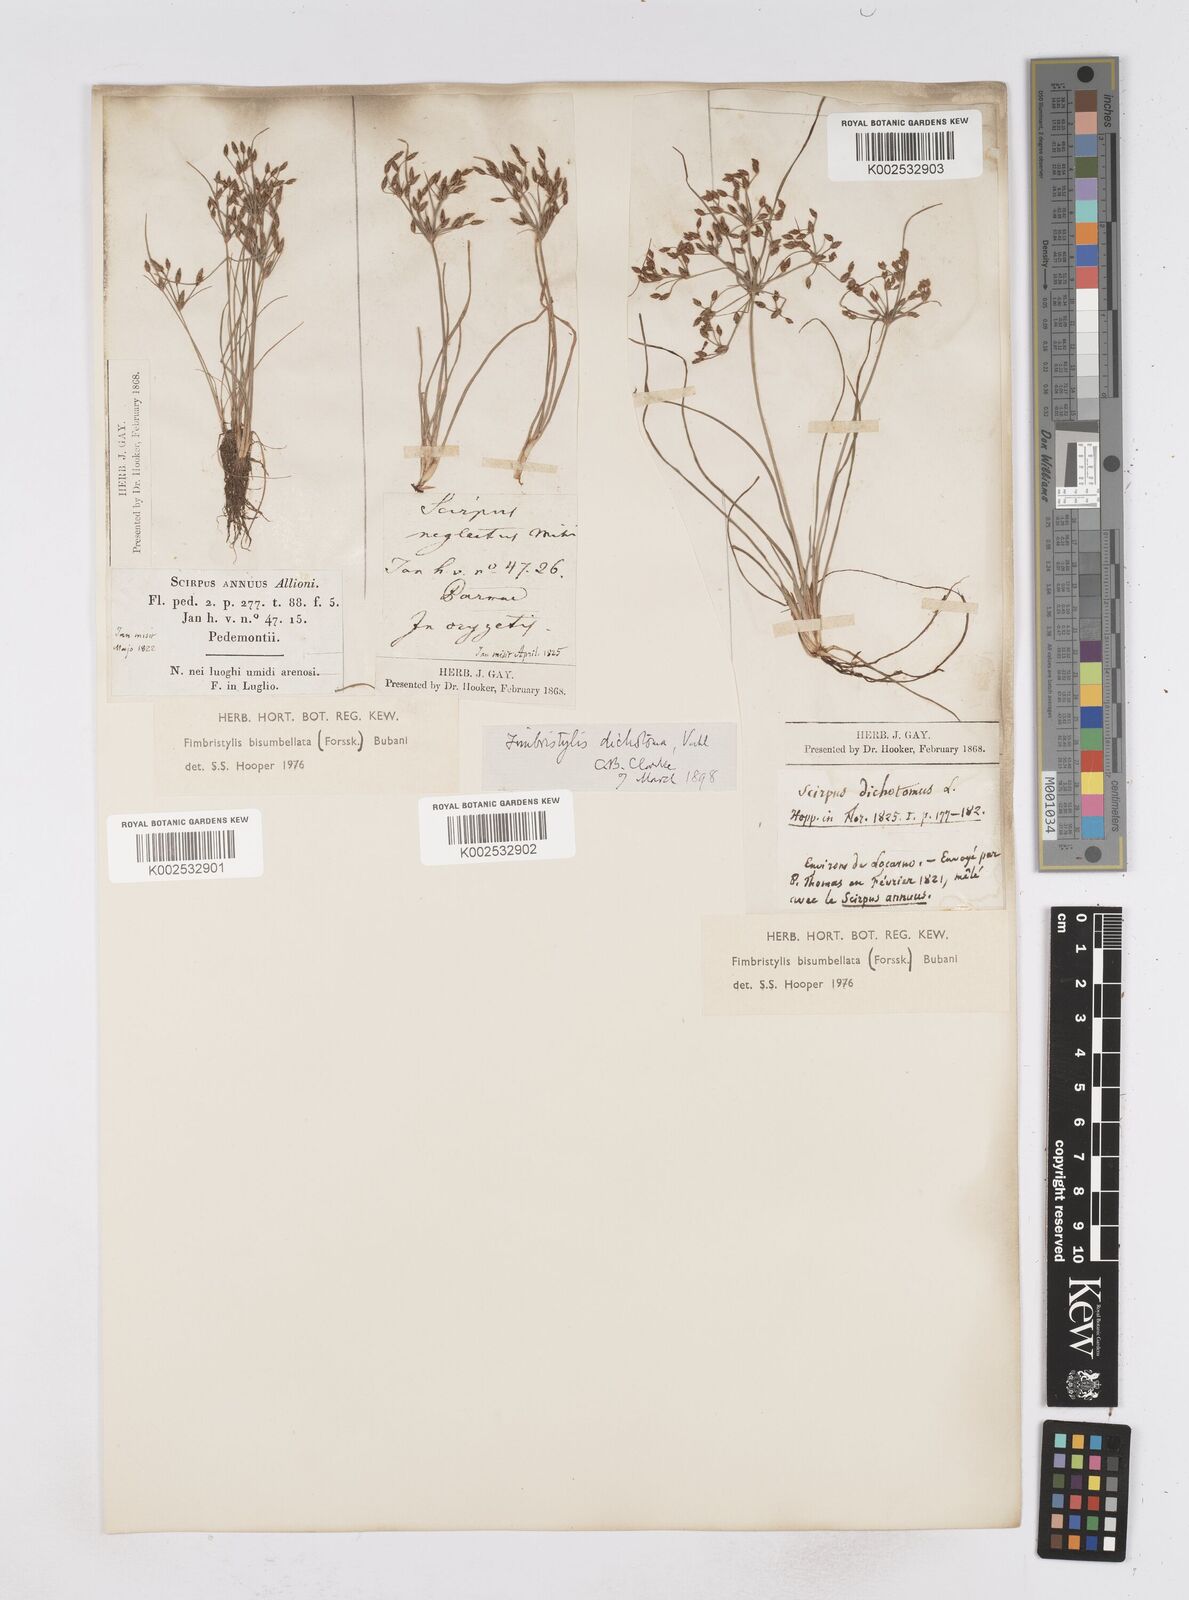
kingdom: Plantae
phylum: Tracheophyta
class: Liliopsida
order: Poales
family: Cyperaceae
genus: Fimbristylis
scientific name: Fimbristylis bisumbellata
